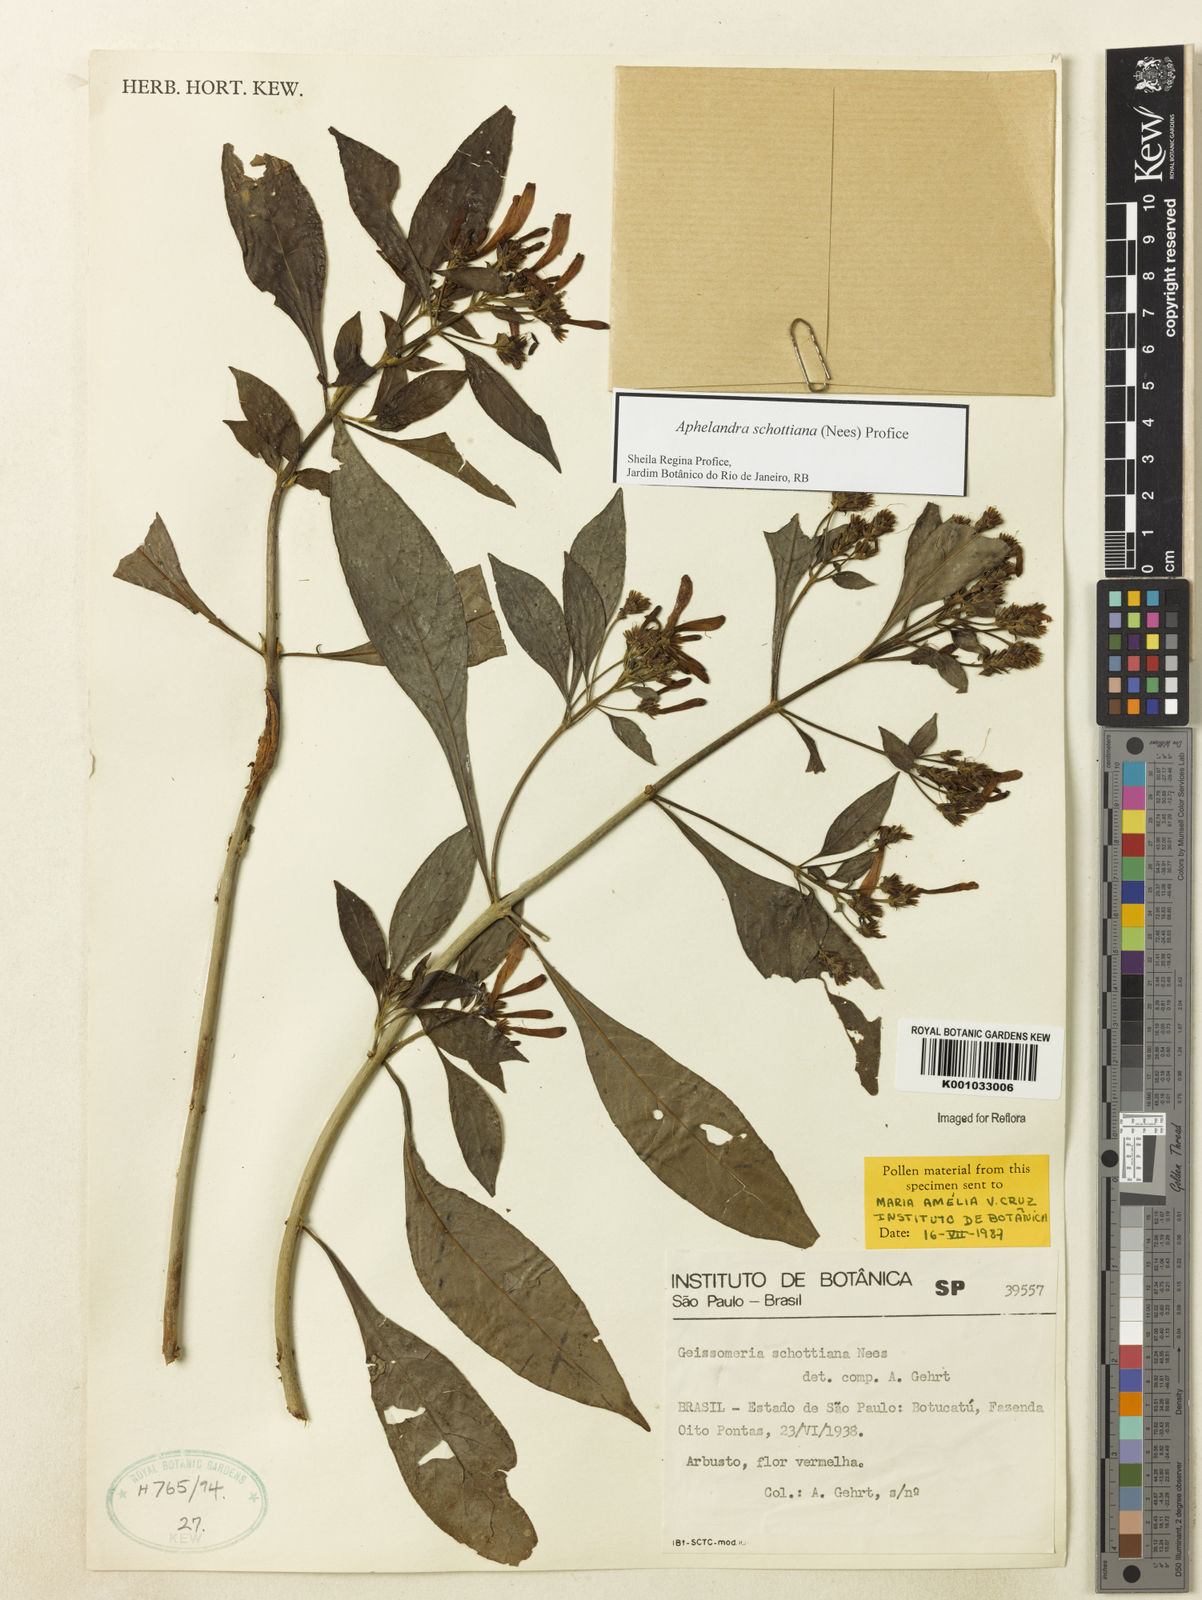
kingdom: Plantae
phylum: Tracheophyta
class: Magnoliopsida
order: Lamiales
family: Acanthaceae
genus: Aphelandra
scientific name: Aphelandra schottiana
